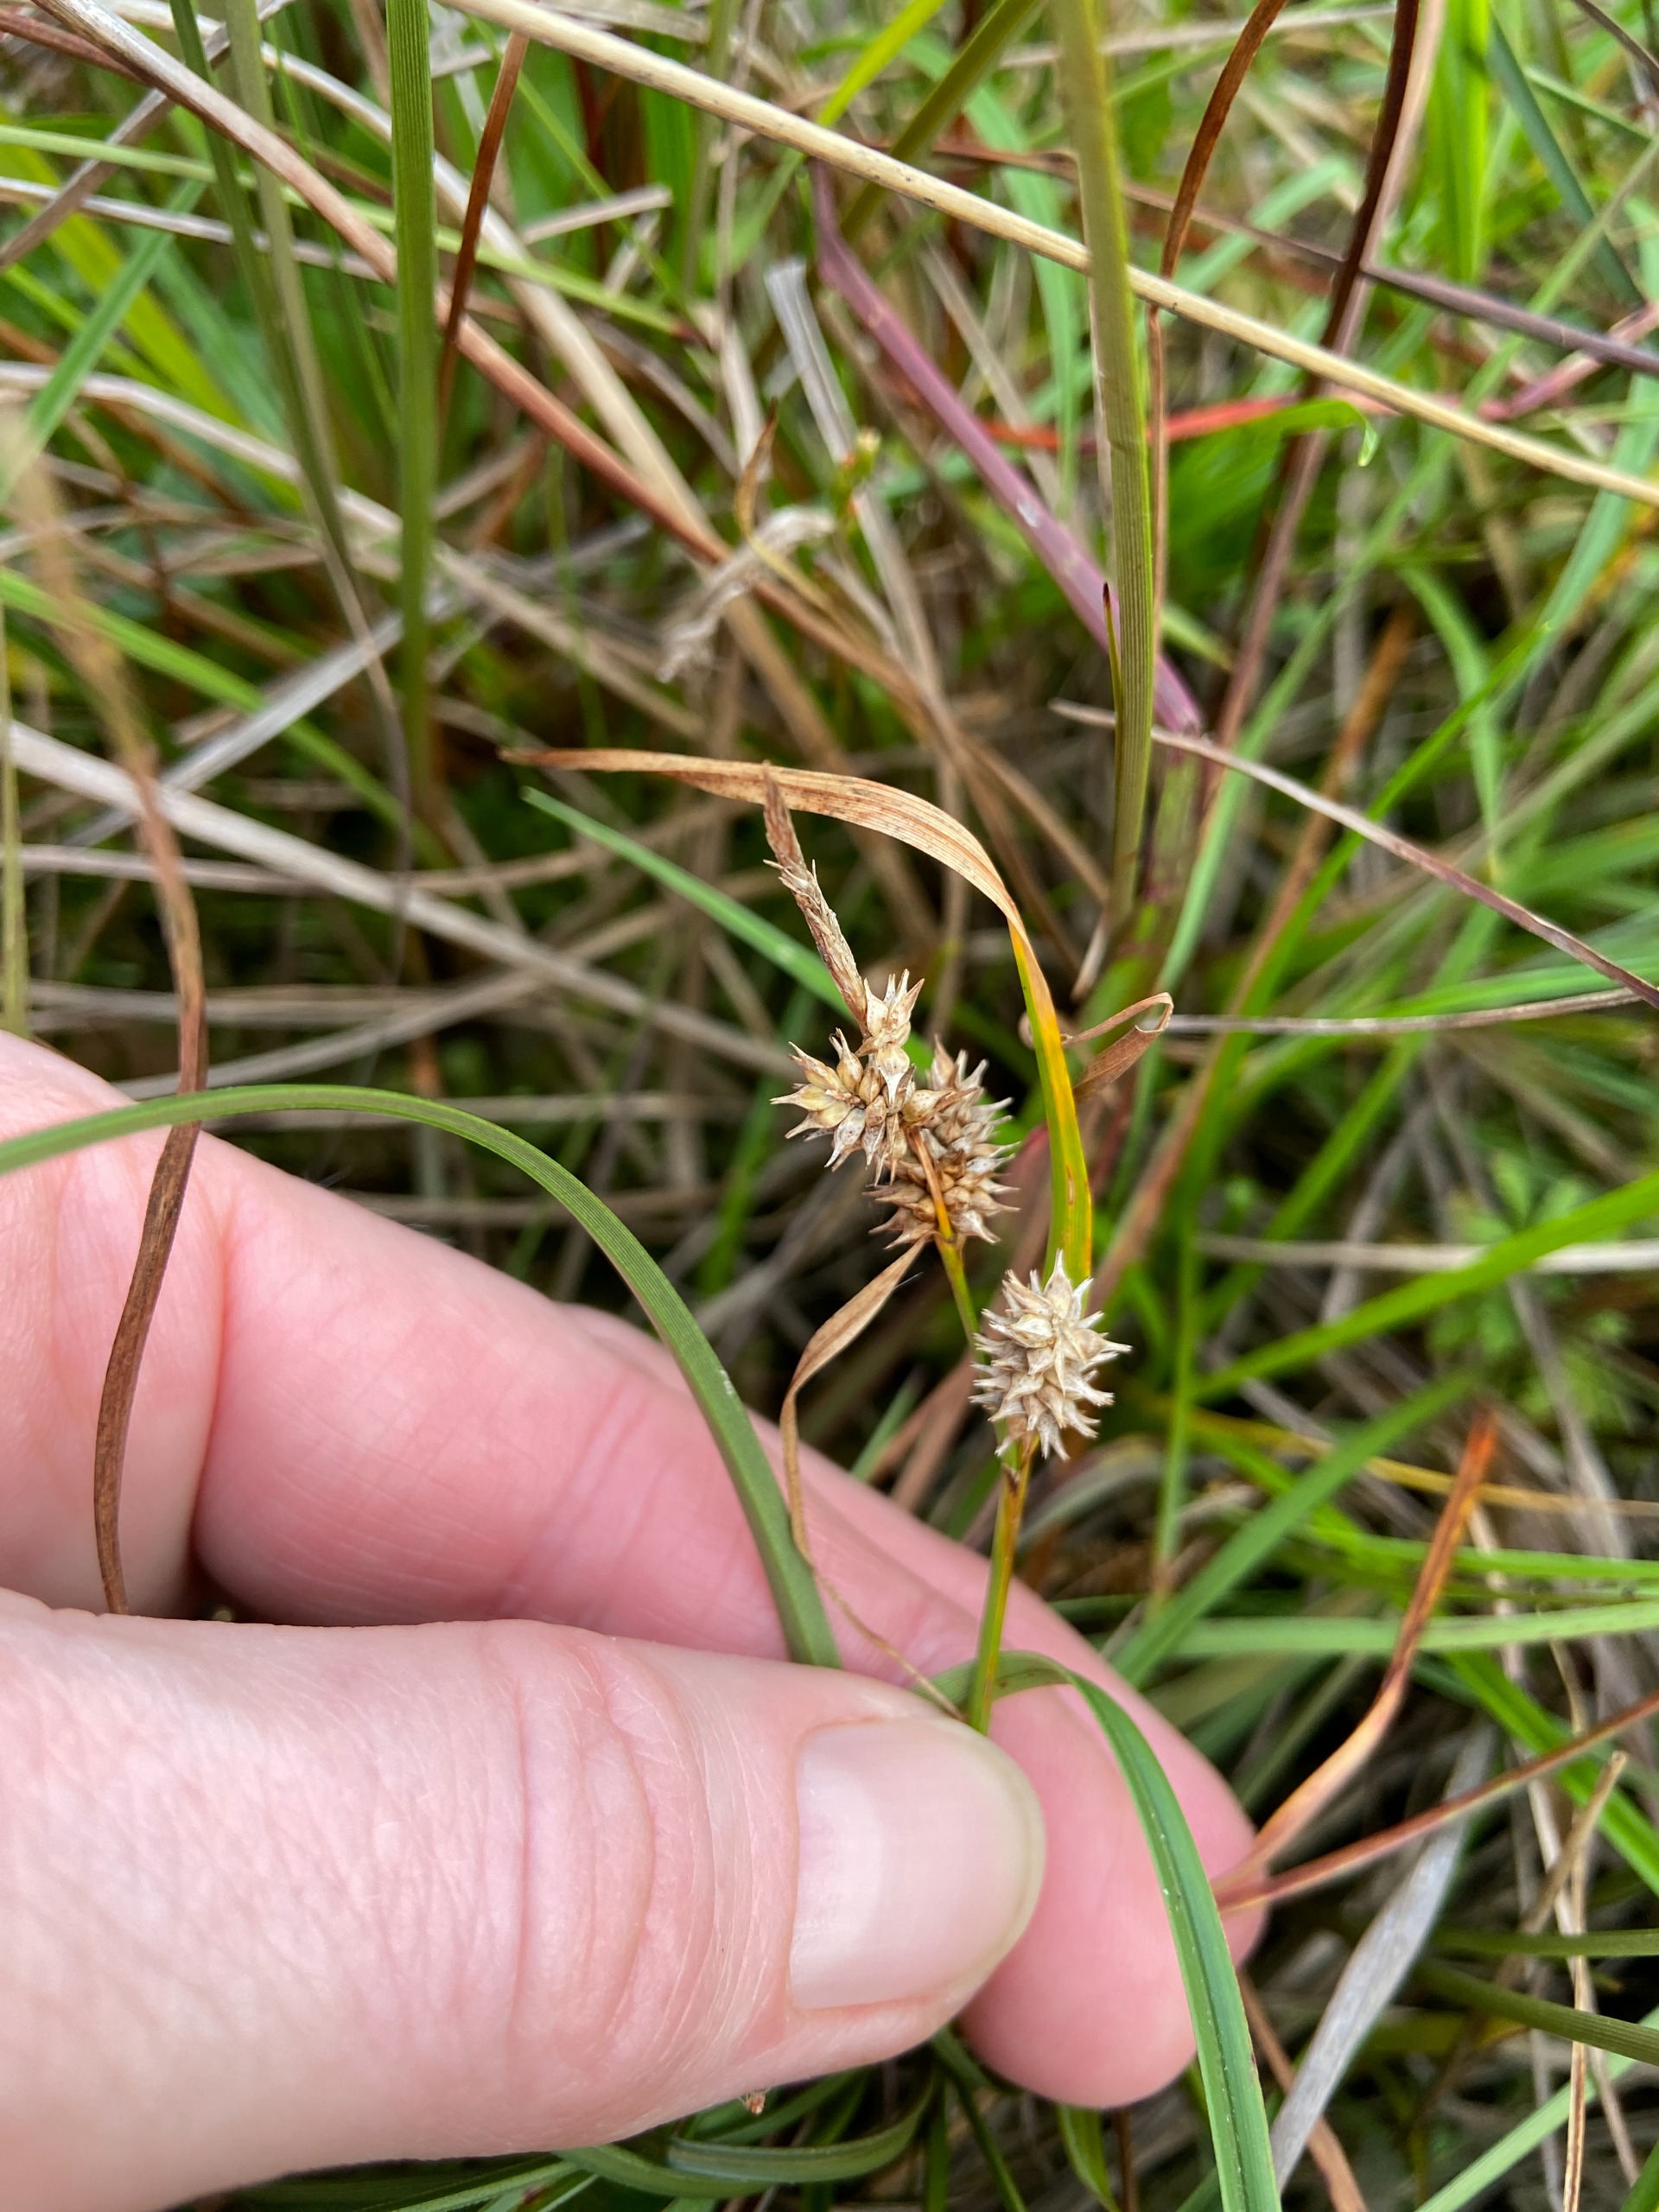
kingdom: Plantae
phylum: Tracheophyta
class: Liliopsida
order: Poales
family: Cyperaceae
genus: Carex
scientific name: Carex demissa
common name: Grøn star
